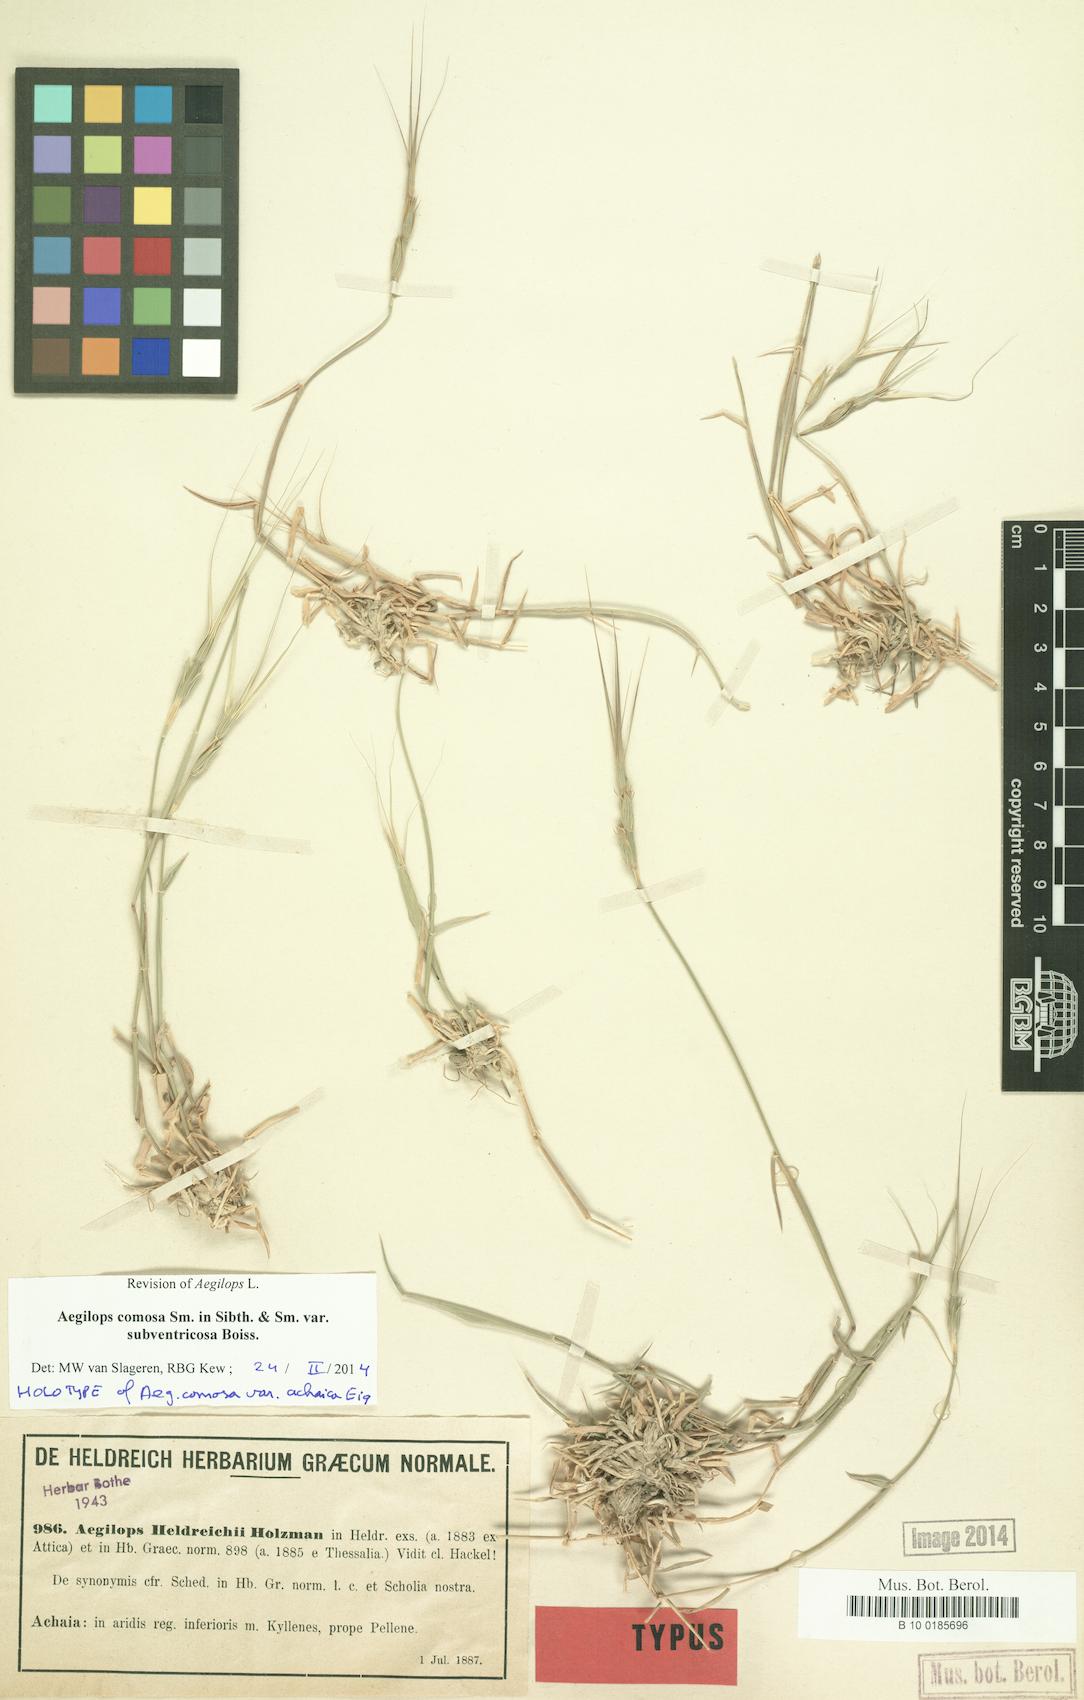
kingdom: Plantae
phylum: Tracheophyta
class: Liliopsida
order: Poales
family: Poaceae
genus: Aegilops
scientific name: Aegilops comosa
